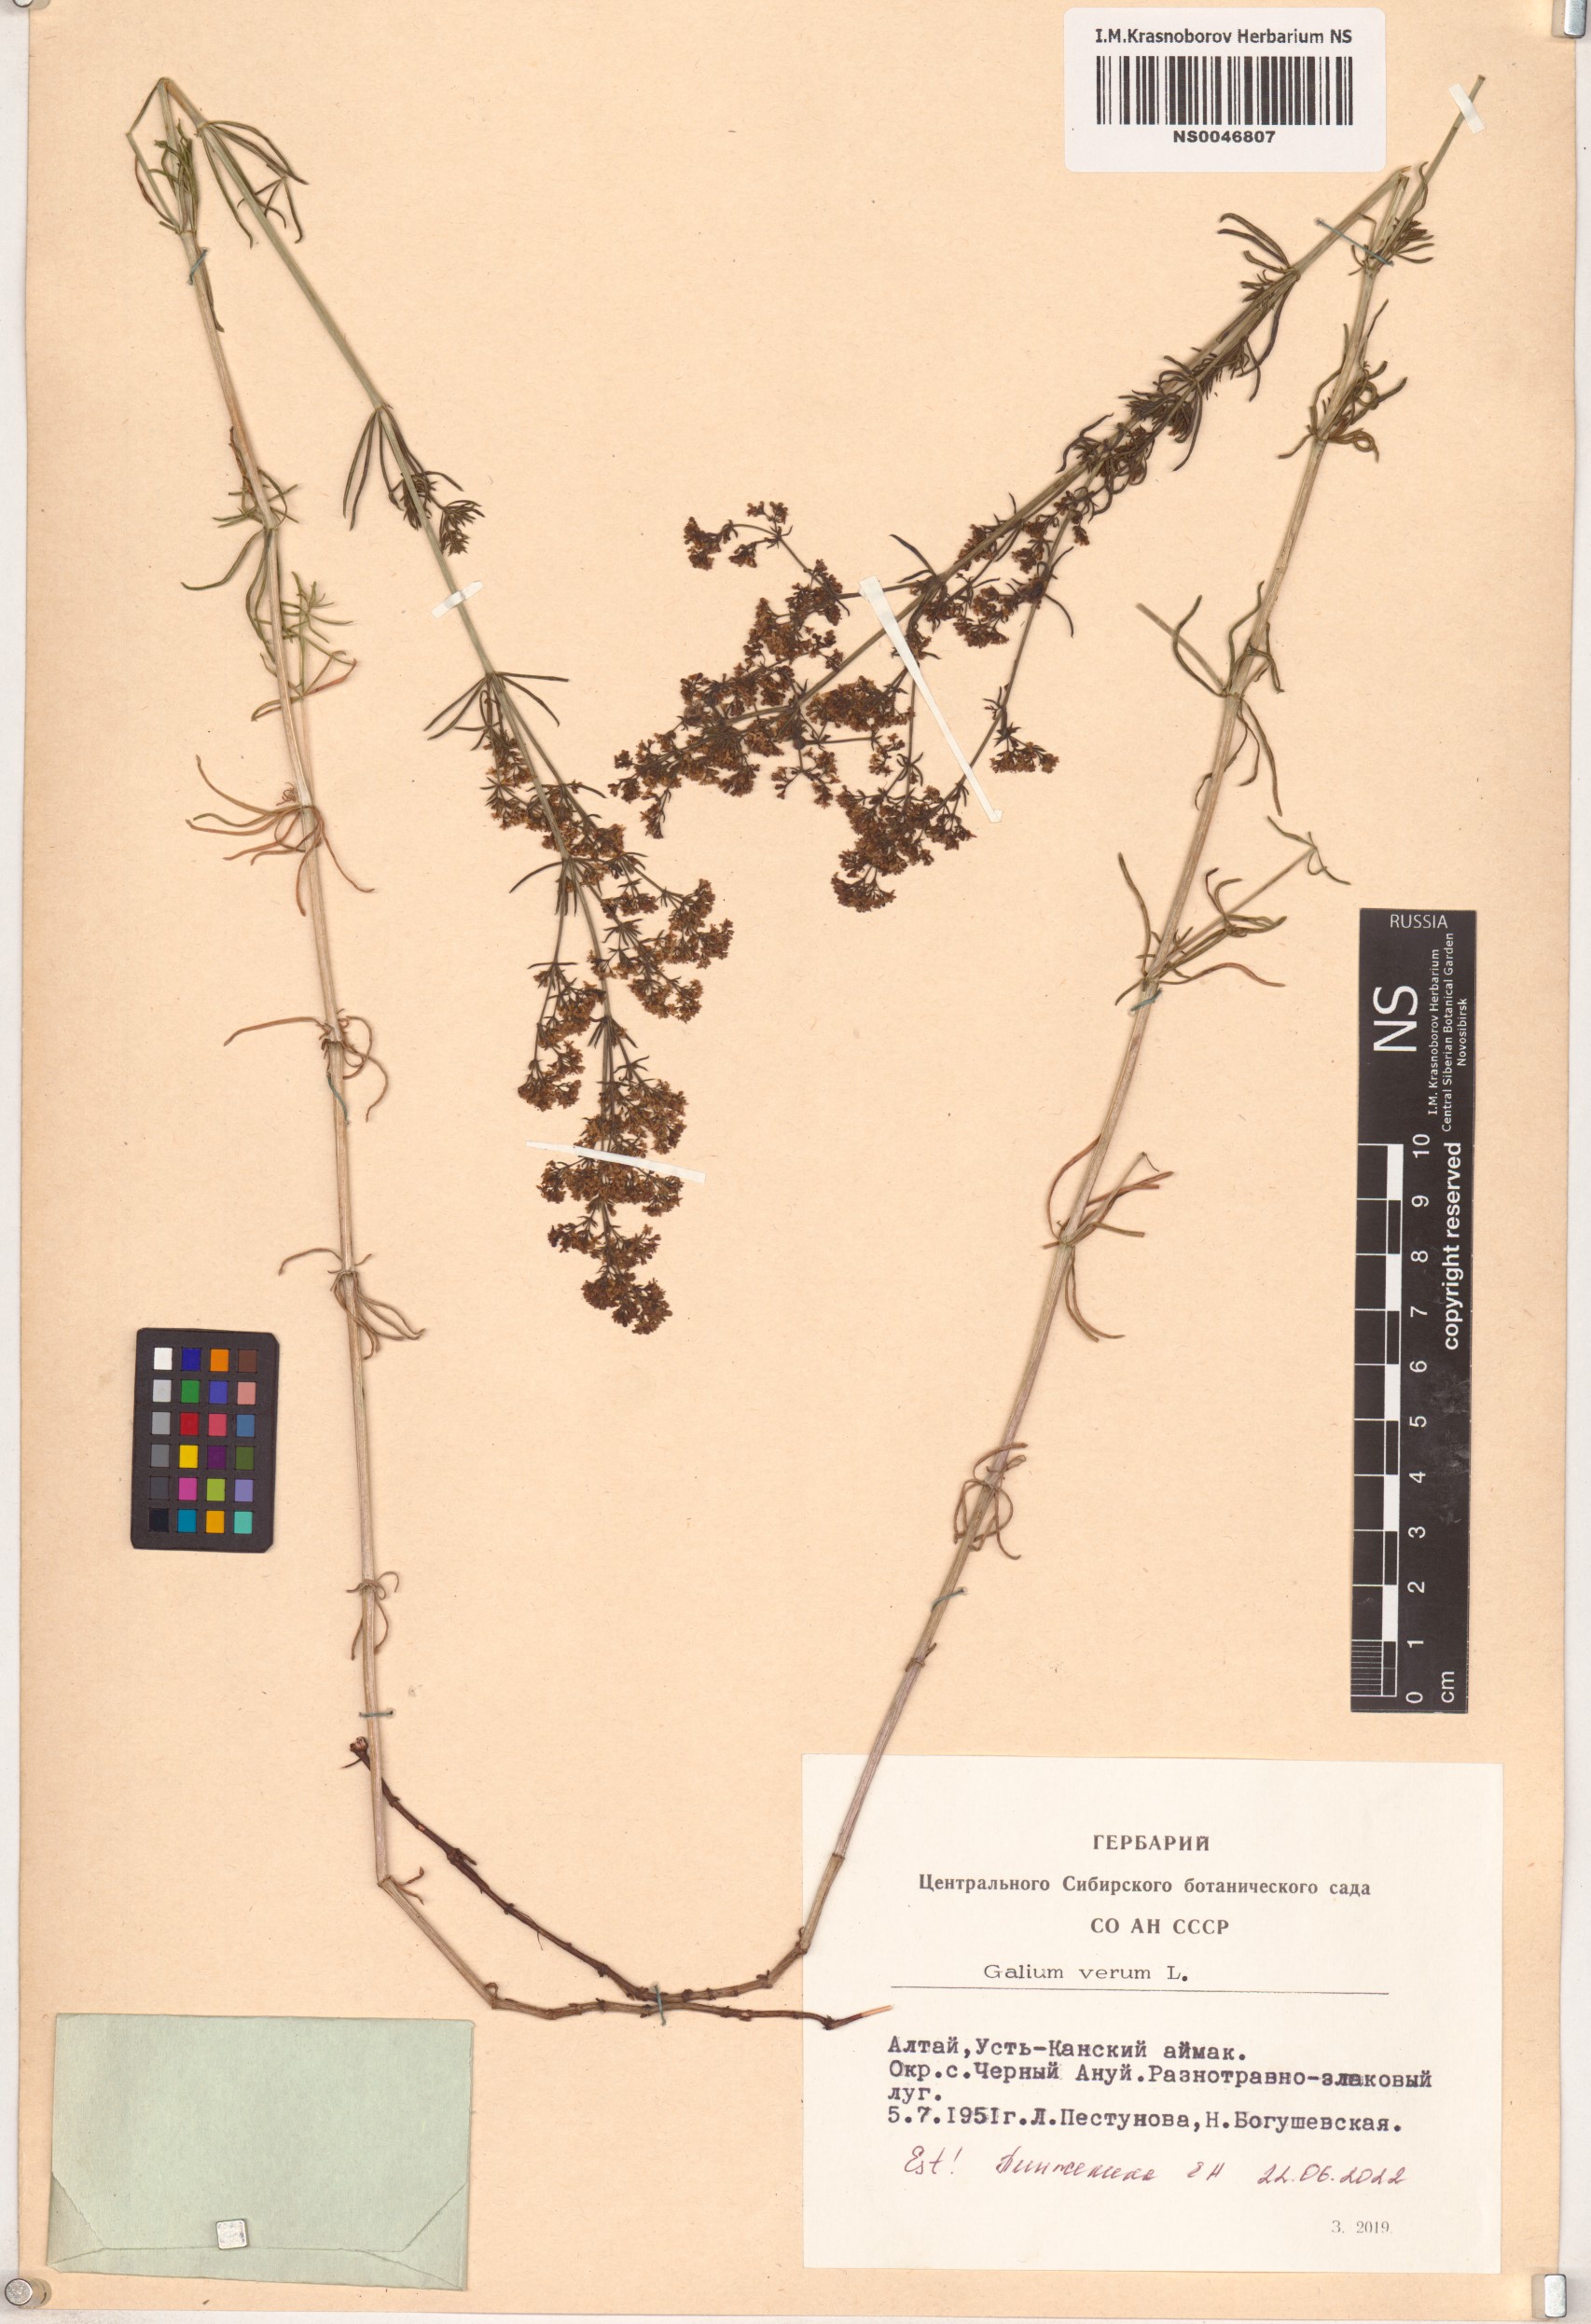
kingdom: Plantae
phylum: Tracheophyta
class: Magnoliopsida
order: Gentianales
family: Rubiaceae
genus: Galium
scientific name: Galium verum
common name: Lady's bedstraw
